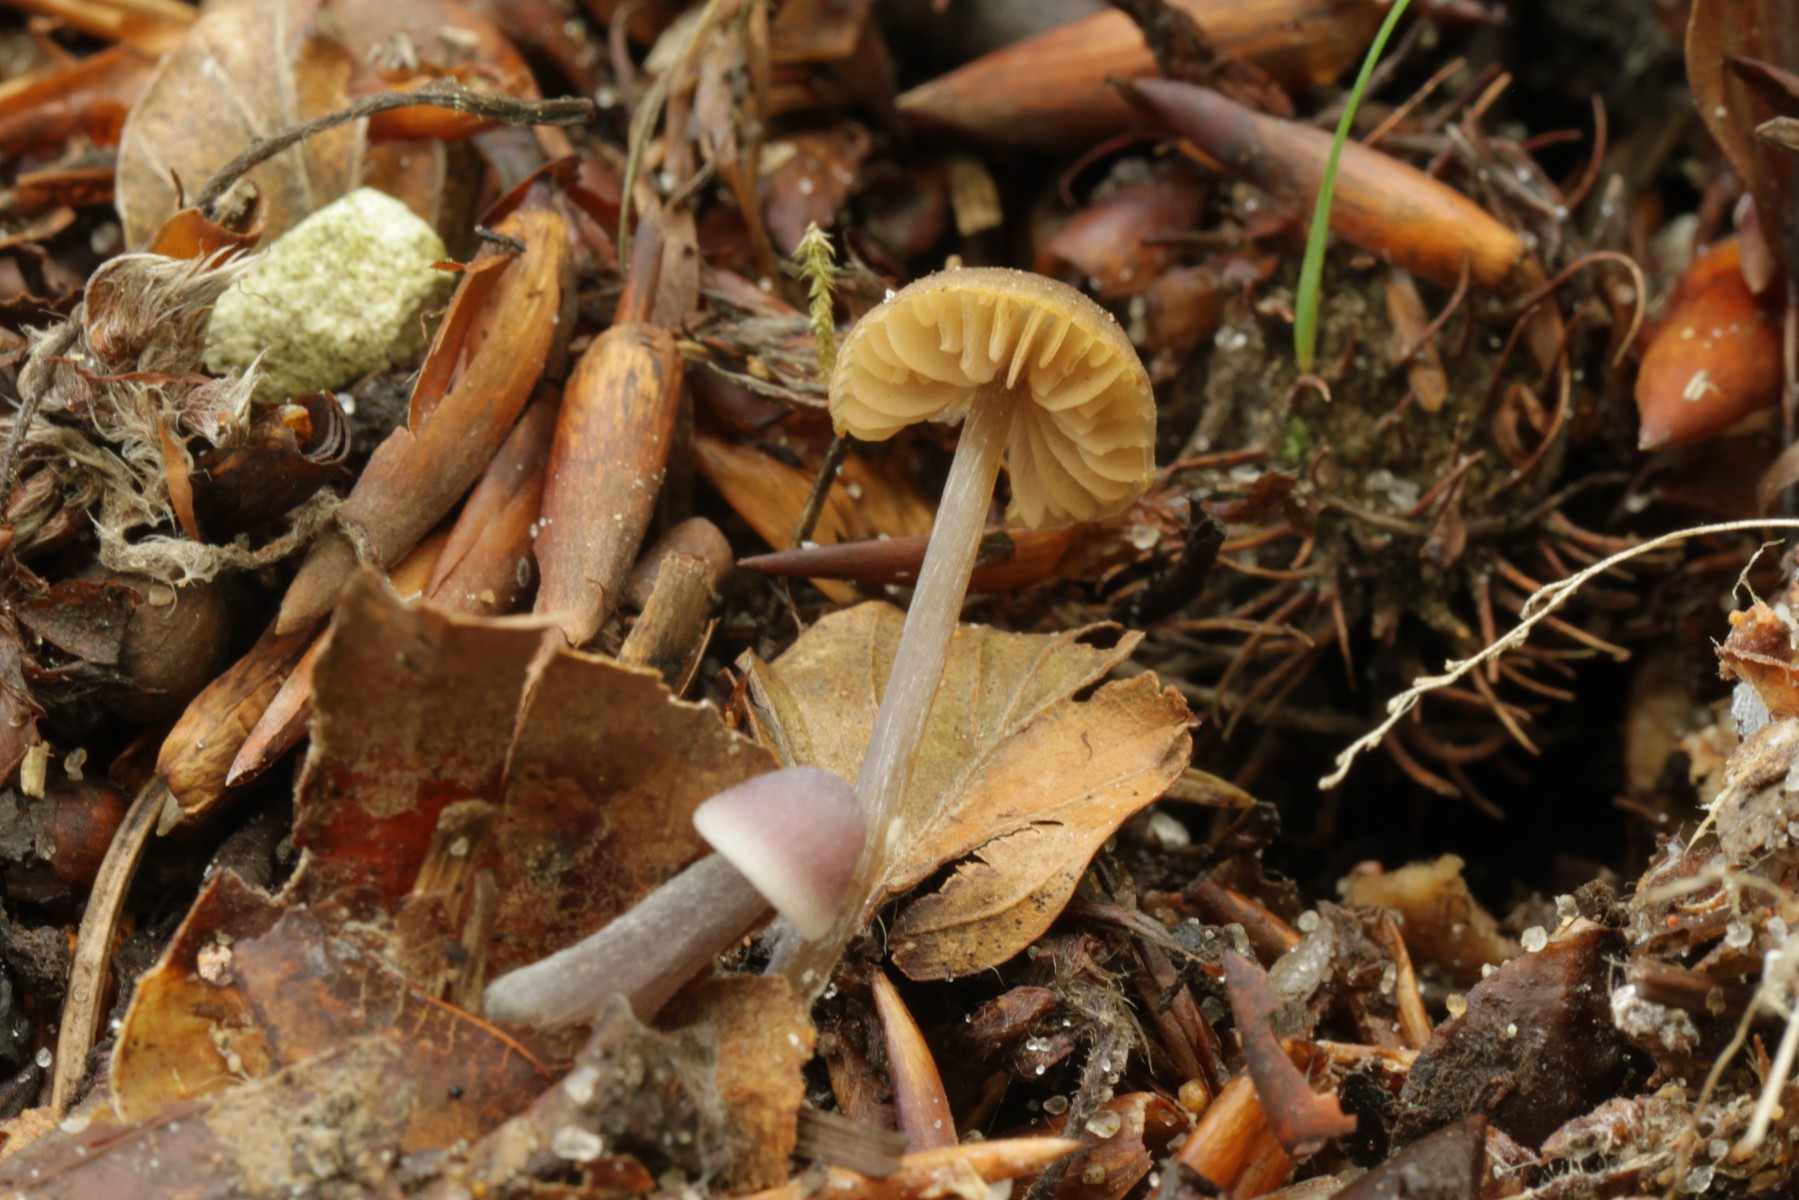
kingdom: Fungi
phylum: Basidiomycota
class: Agaricomycetes
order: Agaricales
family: Entolomataceae
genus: Entoloma
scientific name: Entoloma
